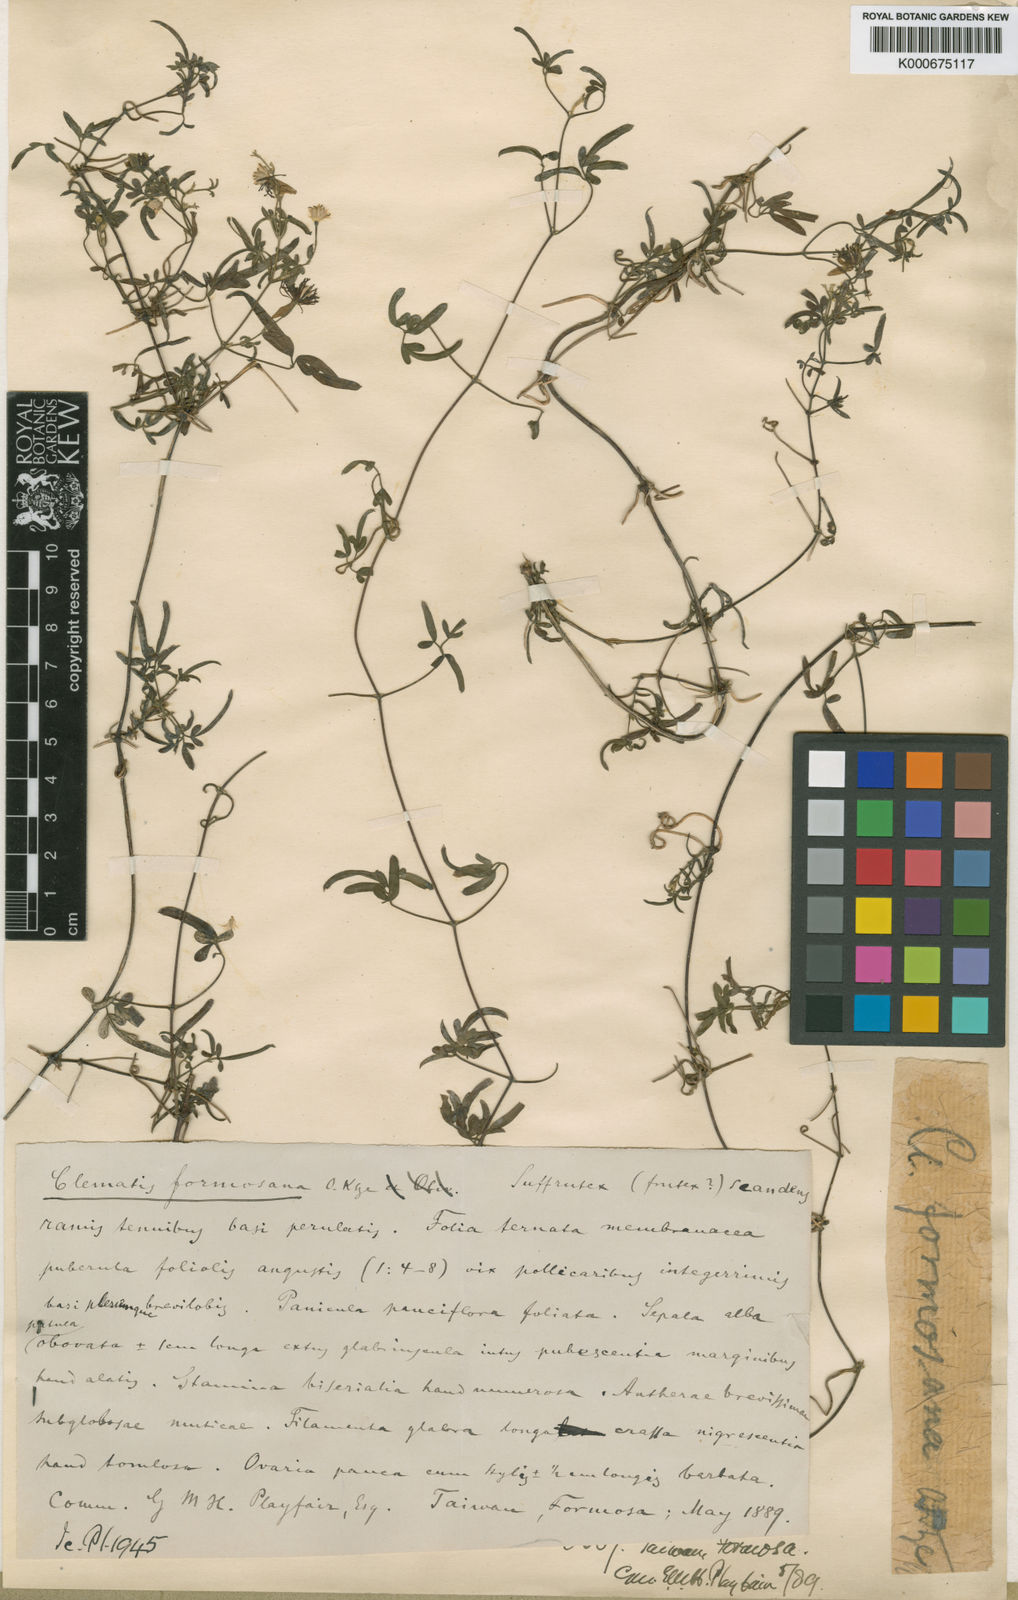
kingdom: Plantae
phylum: Tracheophyta
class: Magnoliopsida
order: Ranunculales
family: Ranunculaceae
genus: Clematis
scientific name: Clematis formosana
